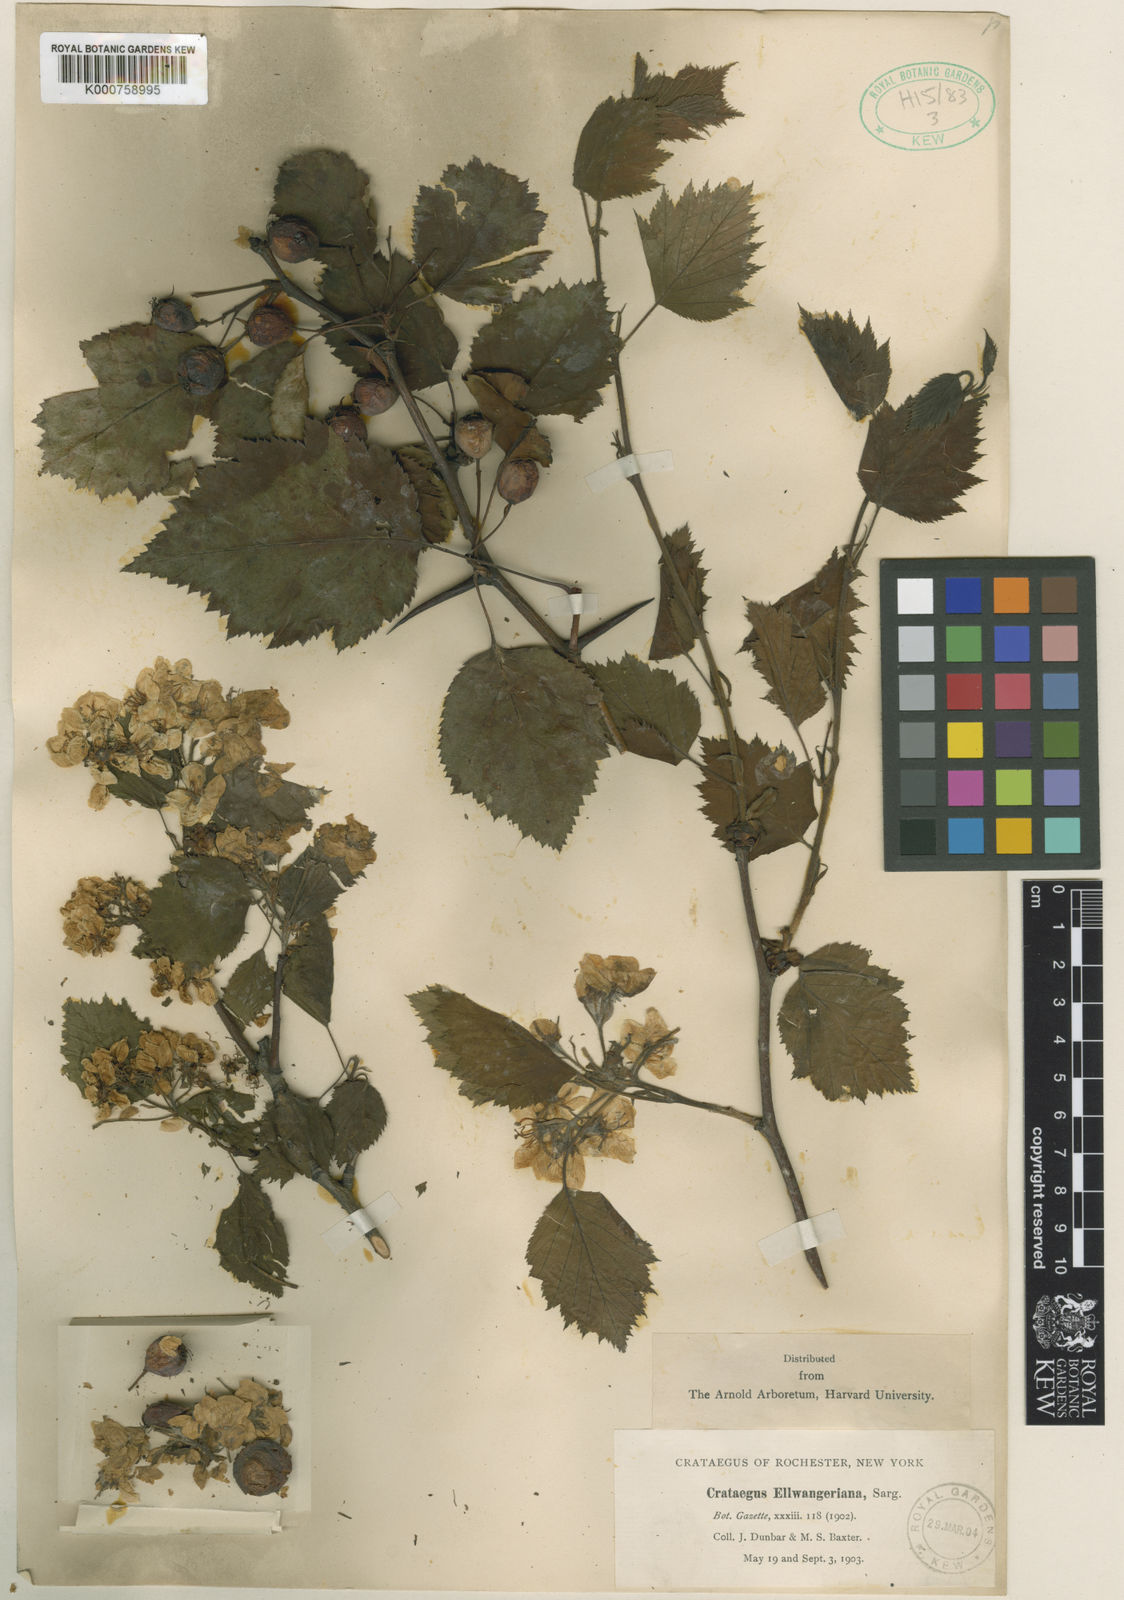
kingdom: Plantae
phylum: Tracheophyta
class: Magnoliopsida
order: Rosales
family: Rosaceae
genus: Crataegus
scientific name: Crataegus
